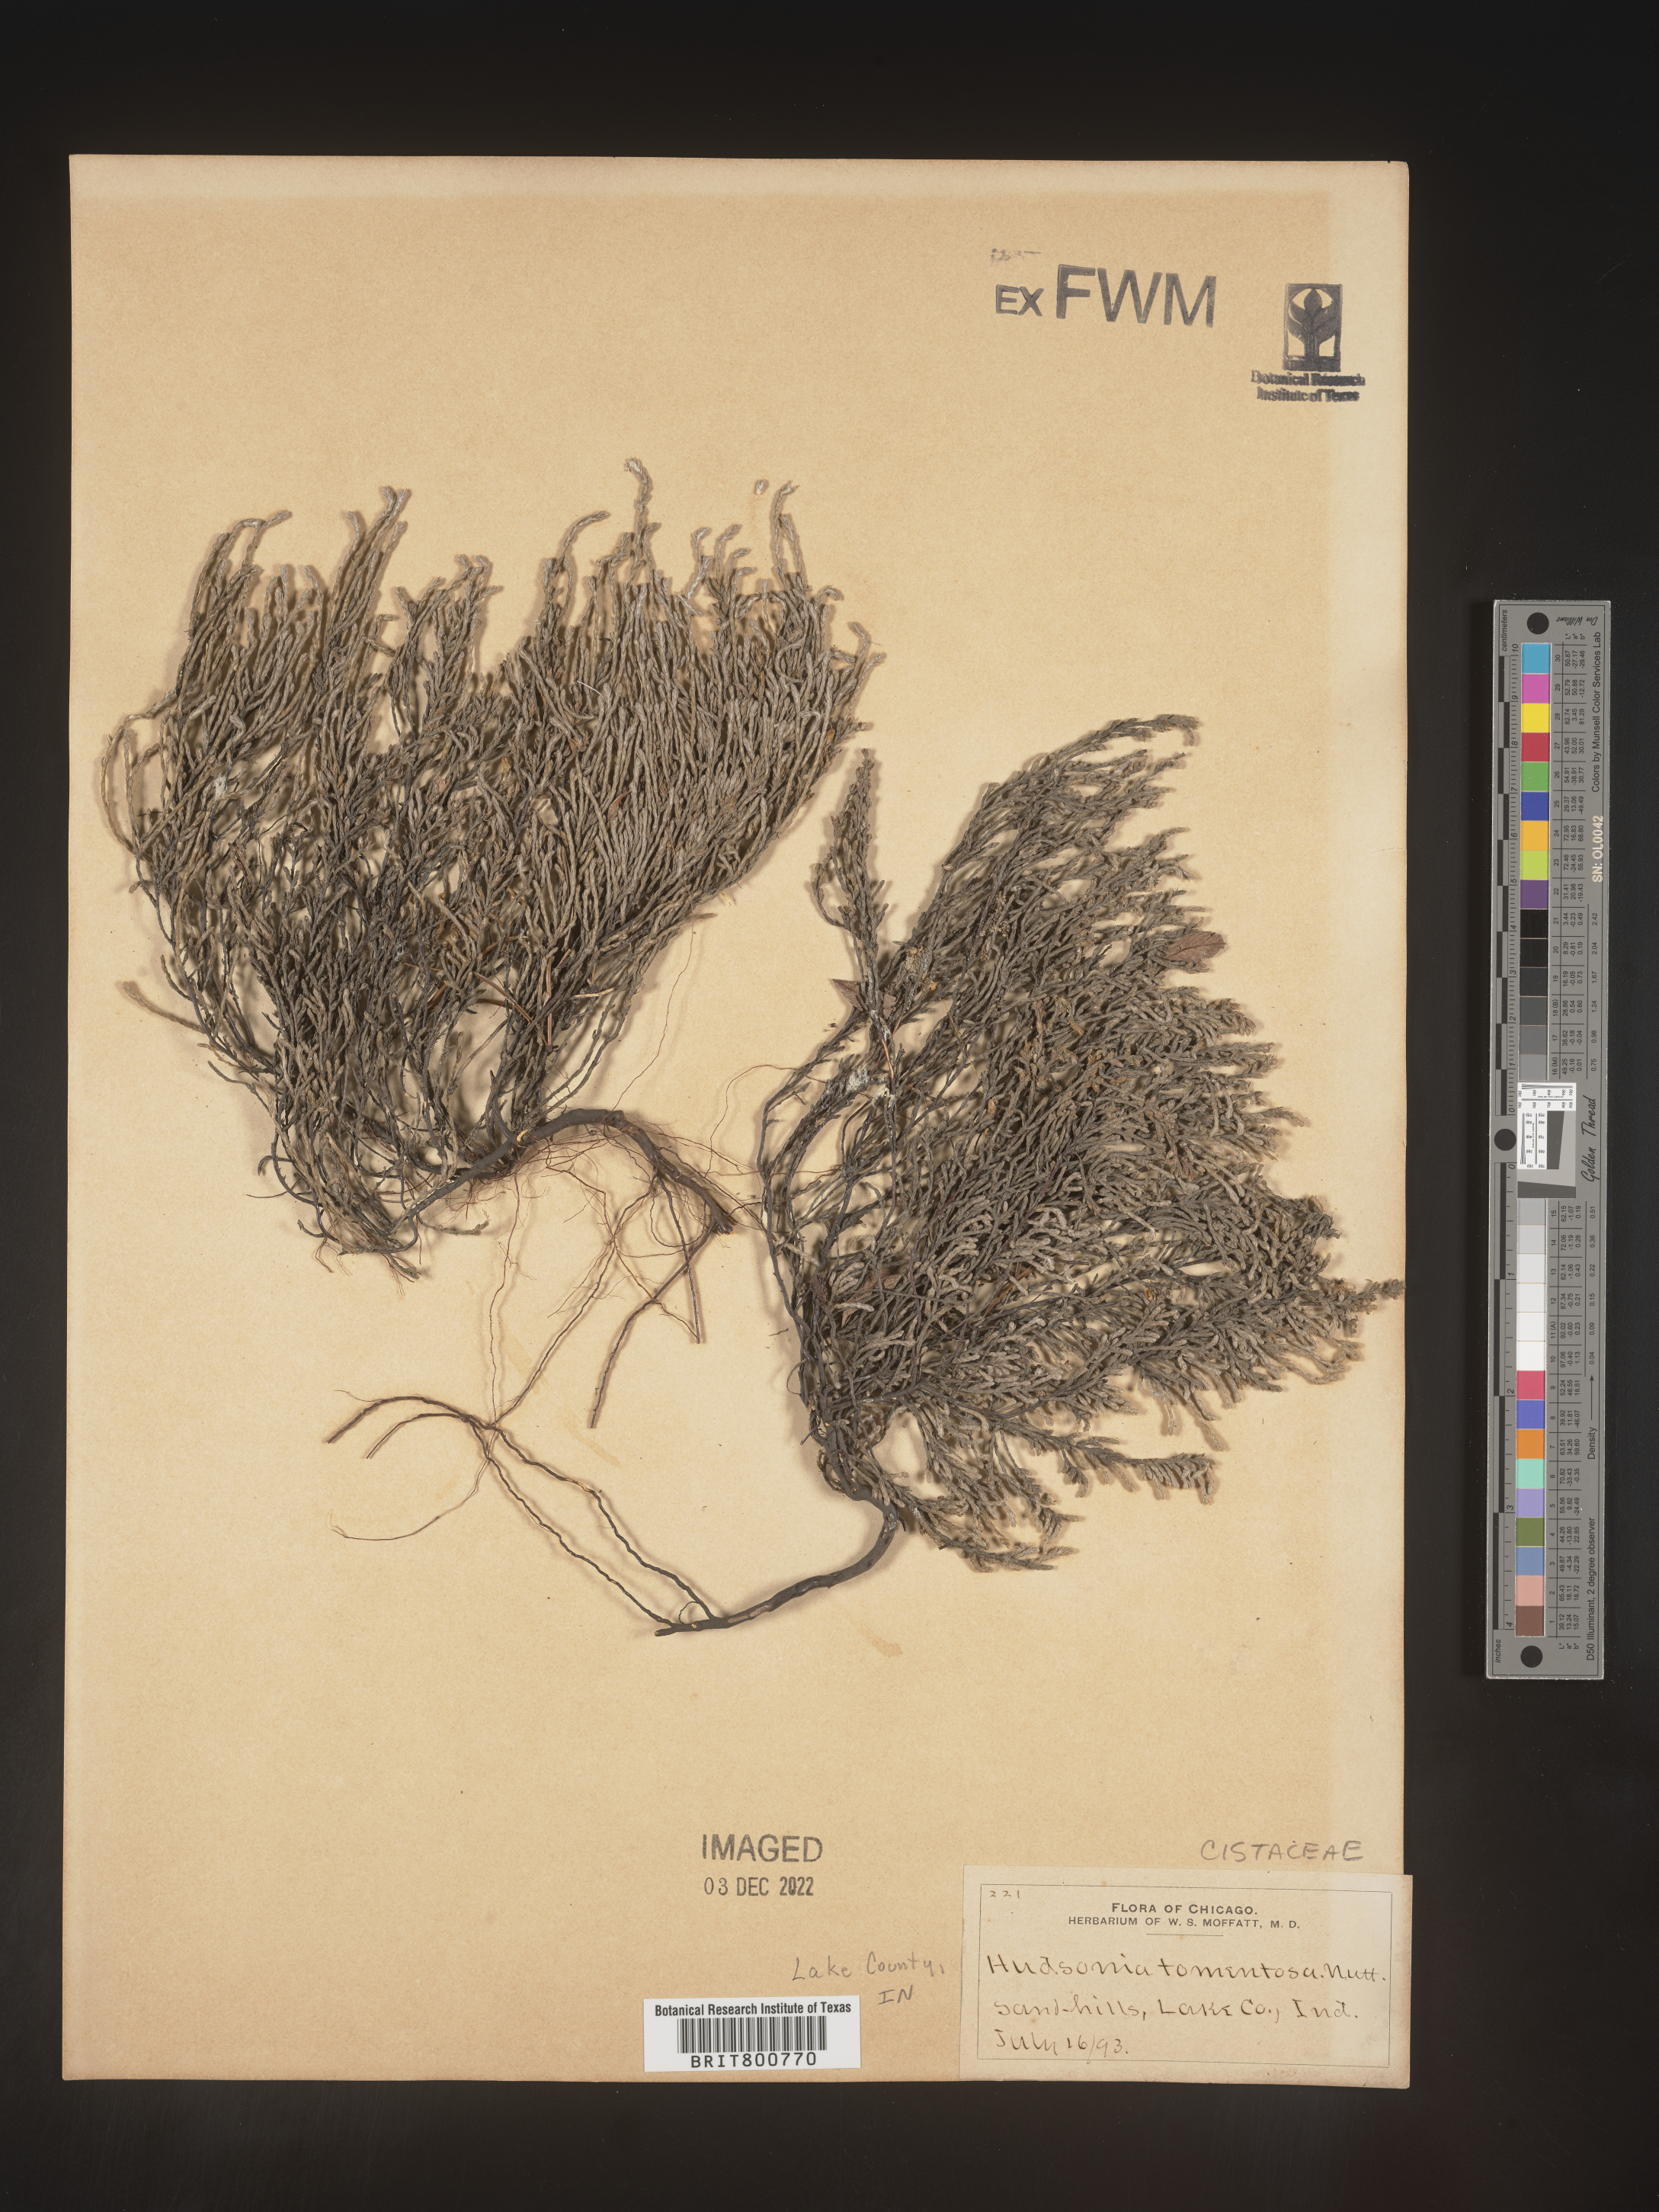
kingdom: Plantae
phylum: Tracheophyta
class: Magnoliopsida
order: Malvales
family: Cistaceae
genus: Hudsonia
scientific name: Hudsonia tomentosa
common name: Beach-heath
